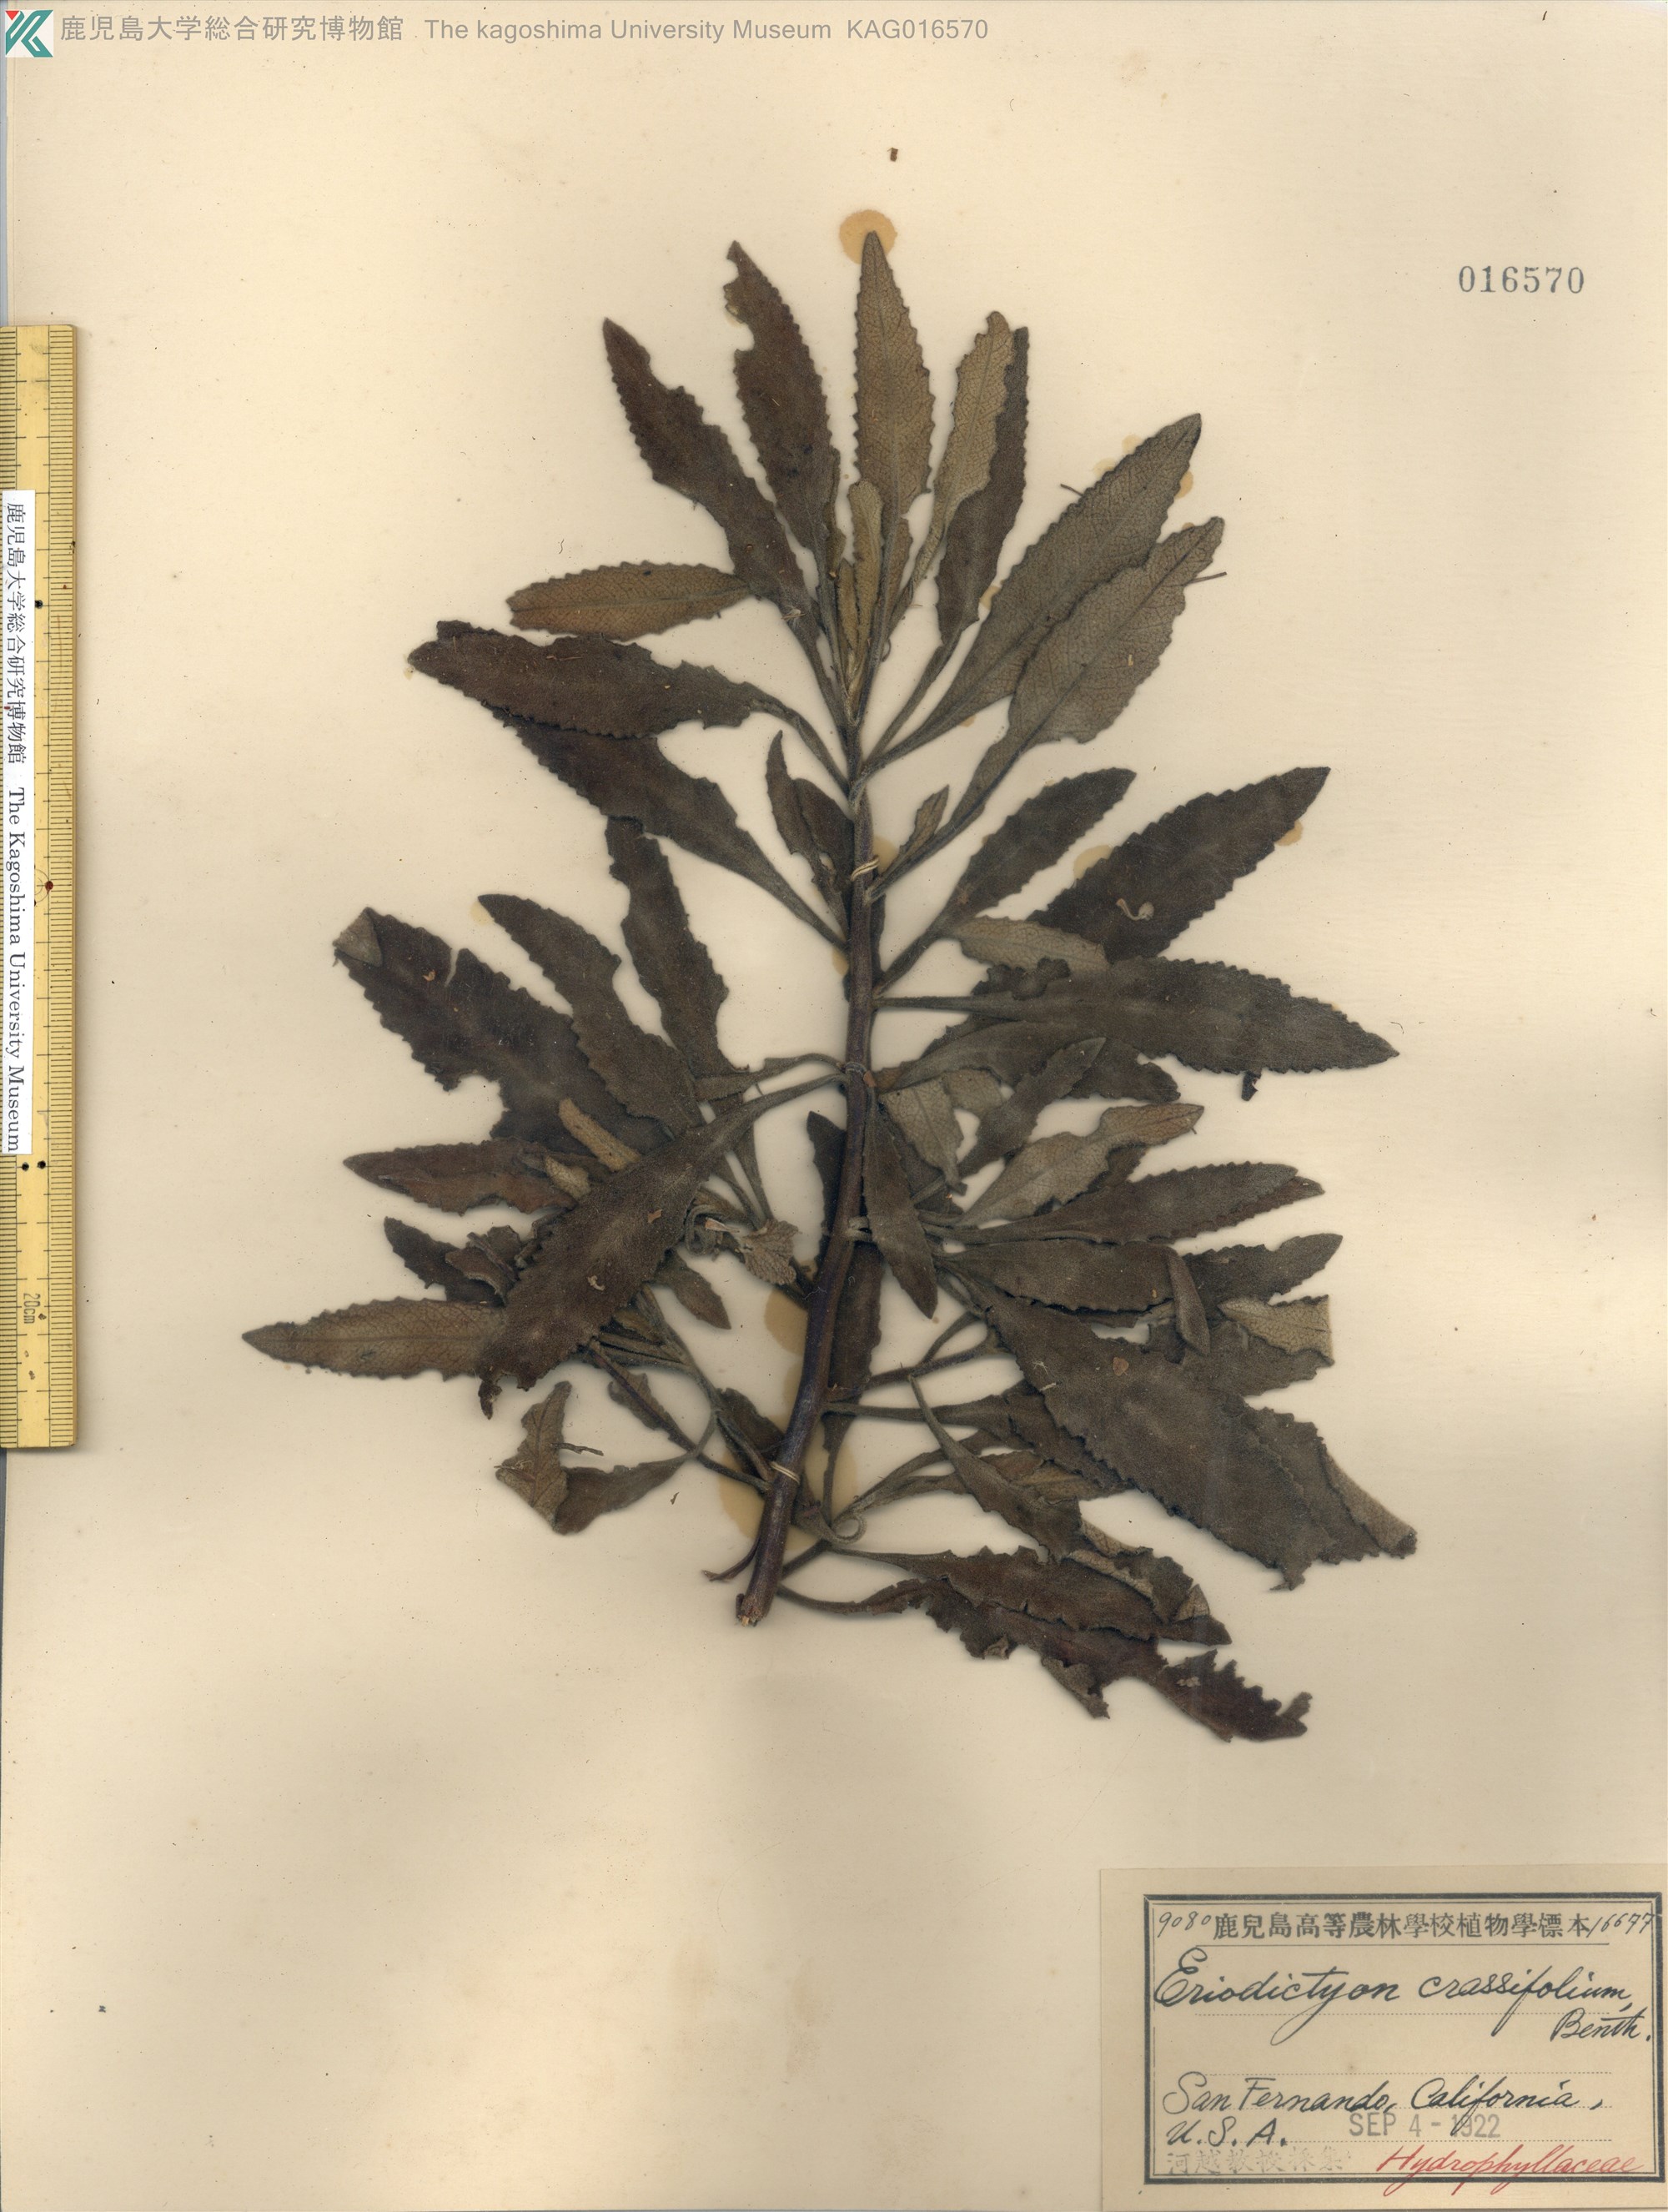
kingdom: Plantae
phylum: Tracheophyta
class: Magnoliopsida
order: Boraginales
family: Namaceae
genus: Eriodictyon
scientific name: Eriodictyon crassifolium
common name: Thick-leaf yerba-santa
